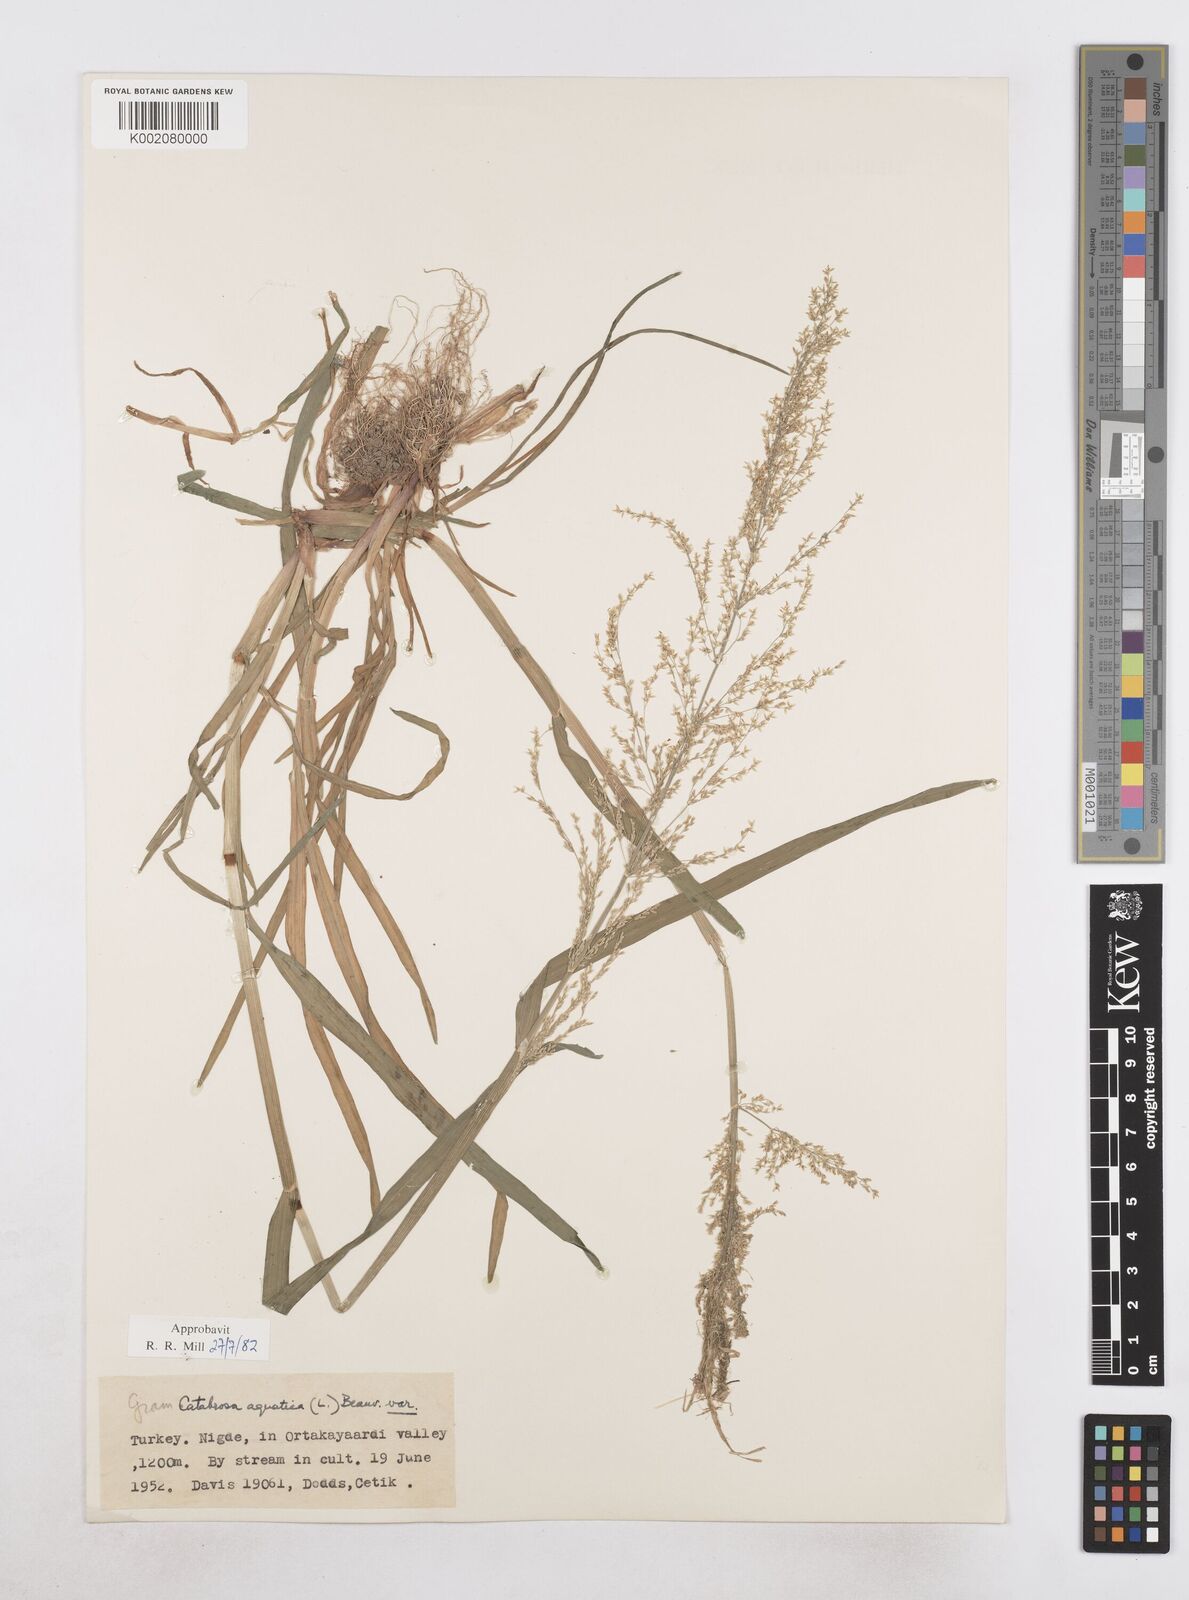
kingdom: Plantae
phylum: Tracheophyta
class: Liliopsida
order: Poales
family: Poaceae
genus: Catabrosa
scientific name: Catabrosa aquatica
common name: Whorl-grass
